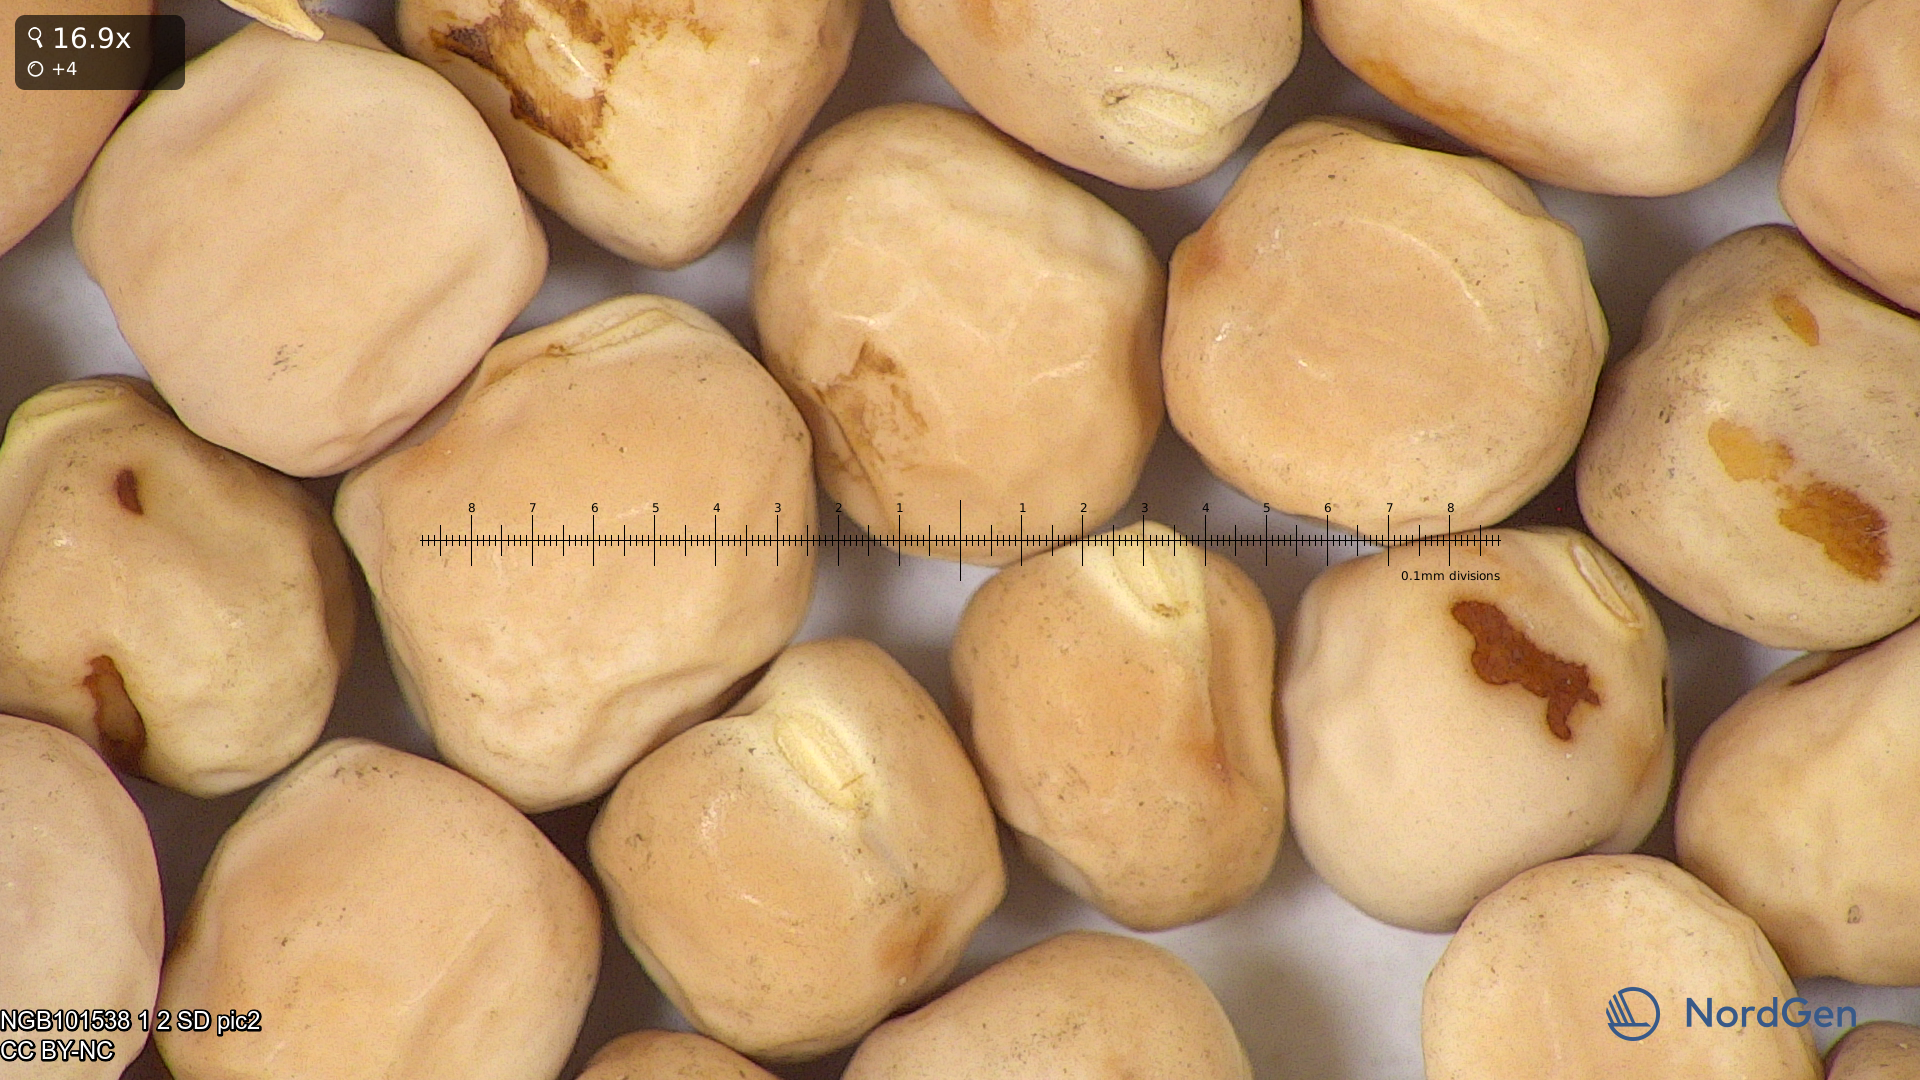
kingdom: Plantae
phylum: Tracheophyta
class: Magnoliopsida
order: Fabales
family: Fabaceae
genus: Lathyrus
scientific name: Lathyrus oleraceus
